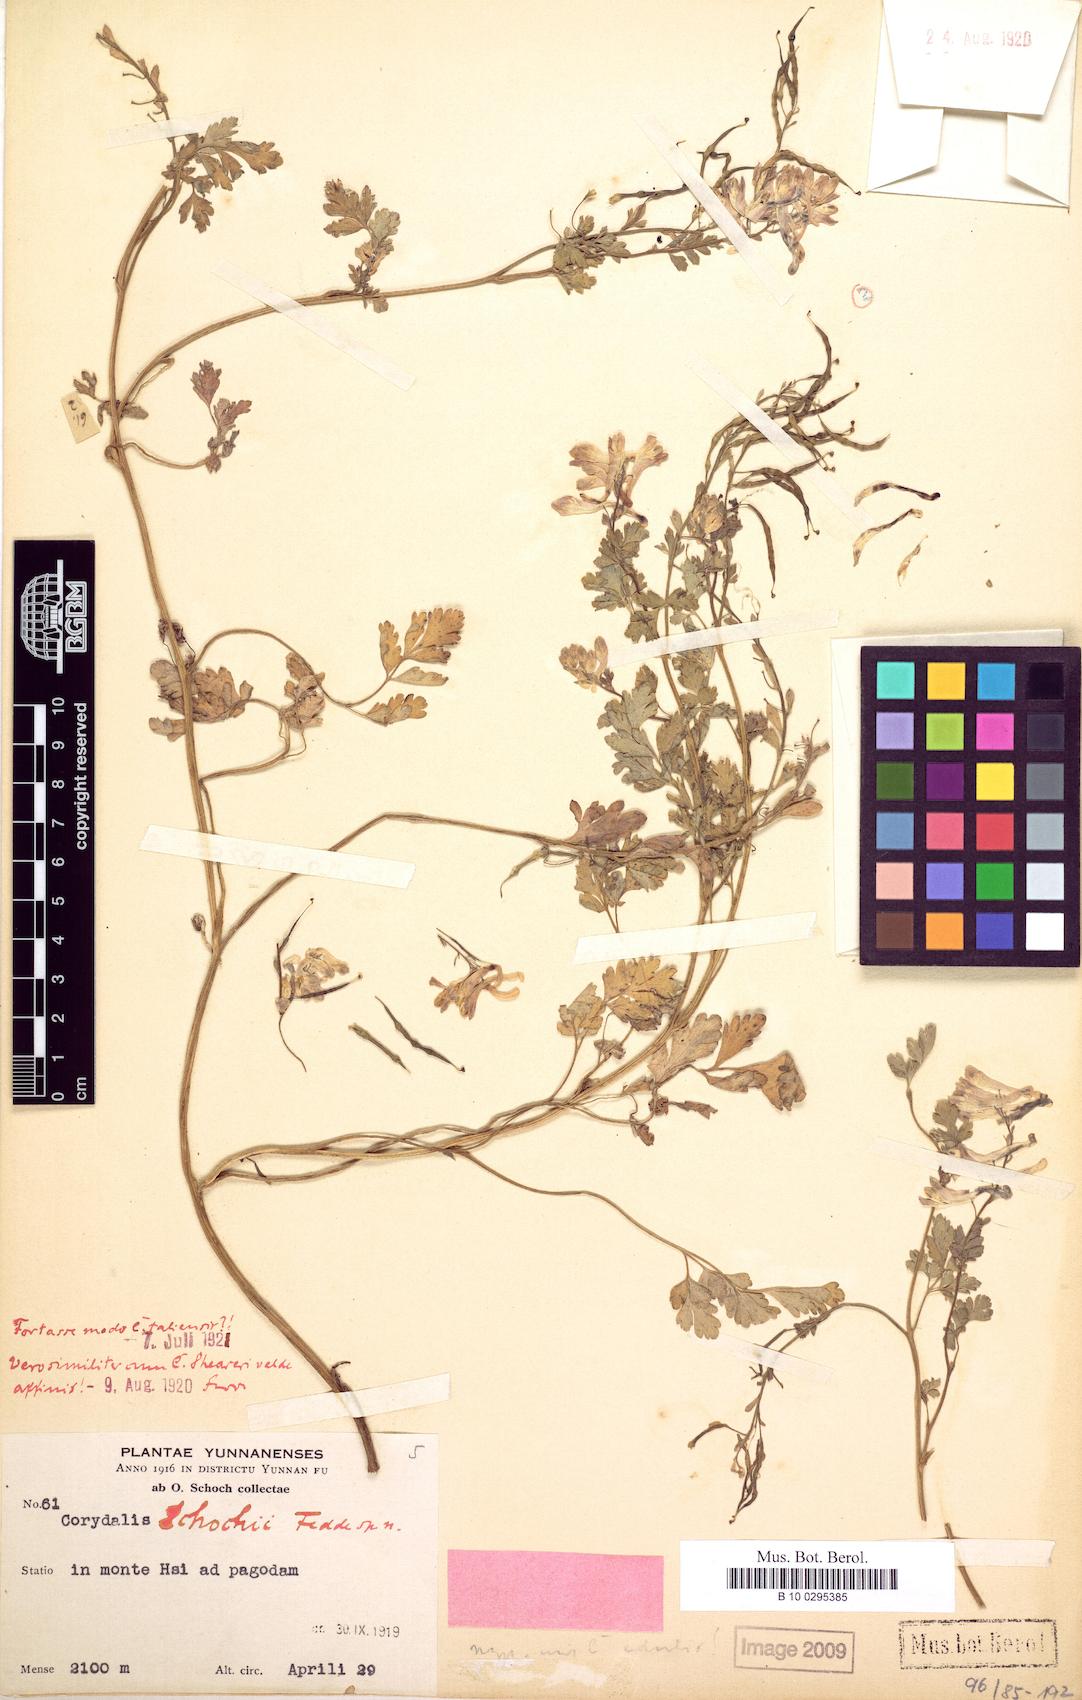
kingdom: Plantae
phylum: Tracheophyta
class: Magnoliopsida
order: Ranunculales
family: Papaveraceae
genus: Corydalis
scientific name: Corydalis duclouxii
